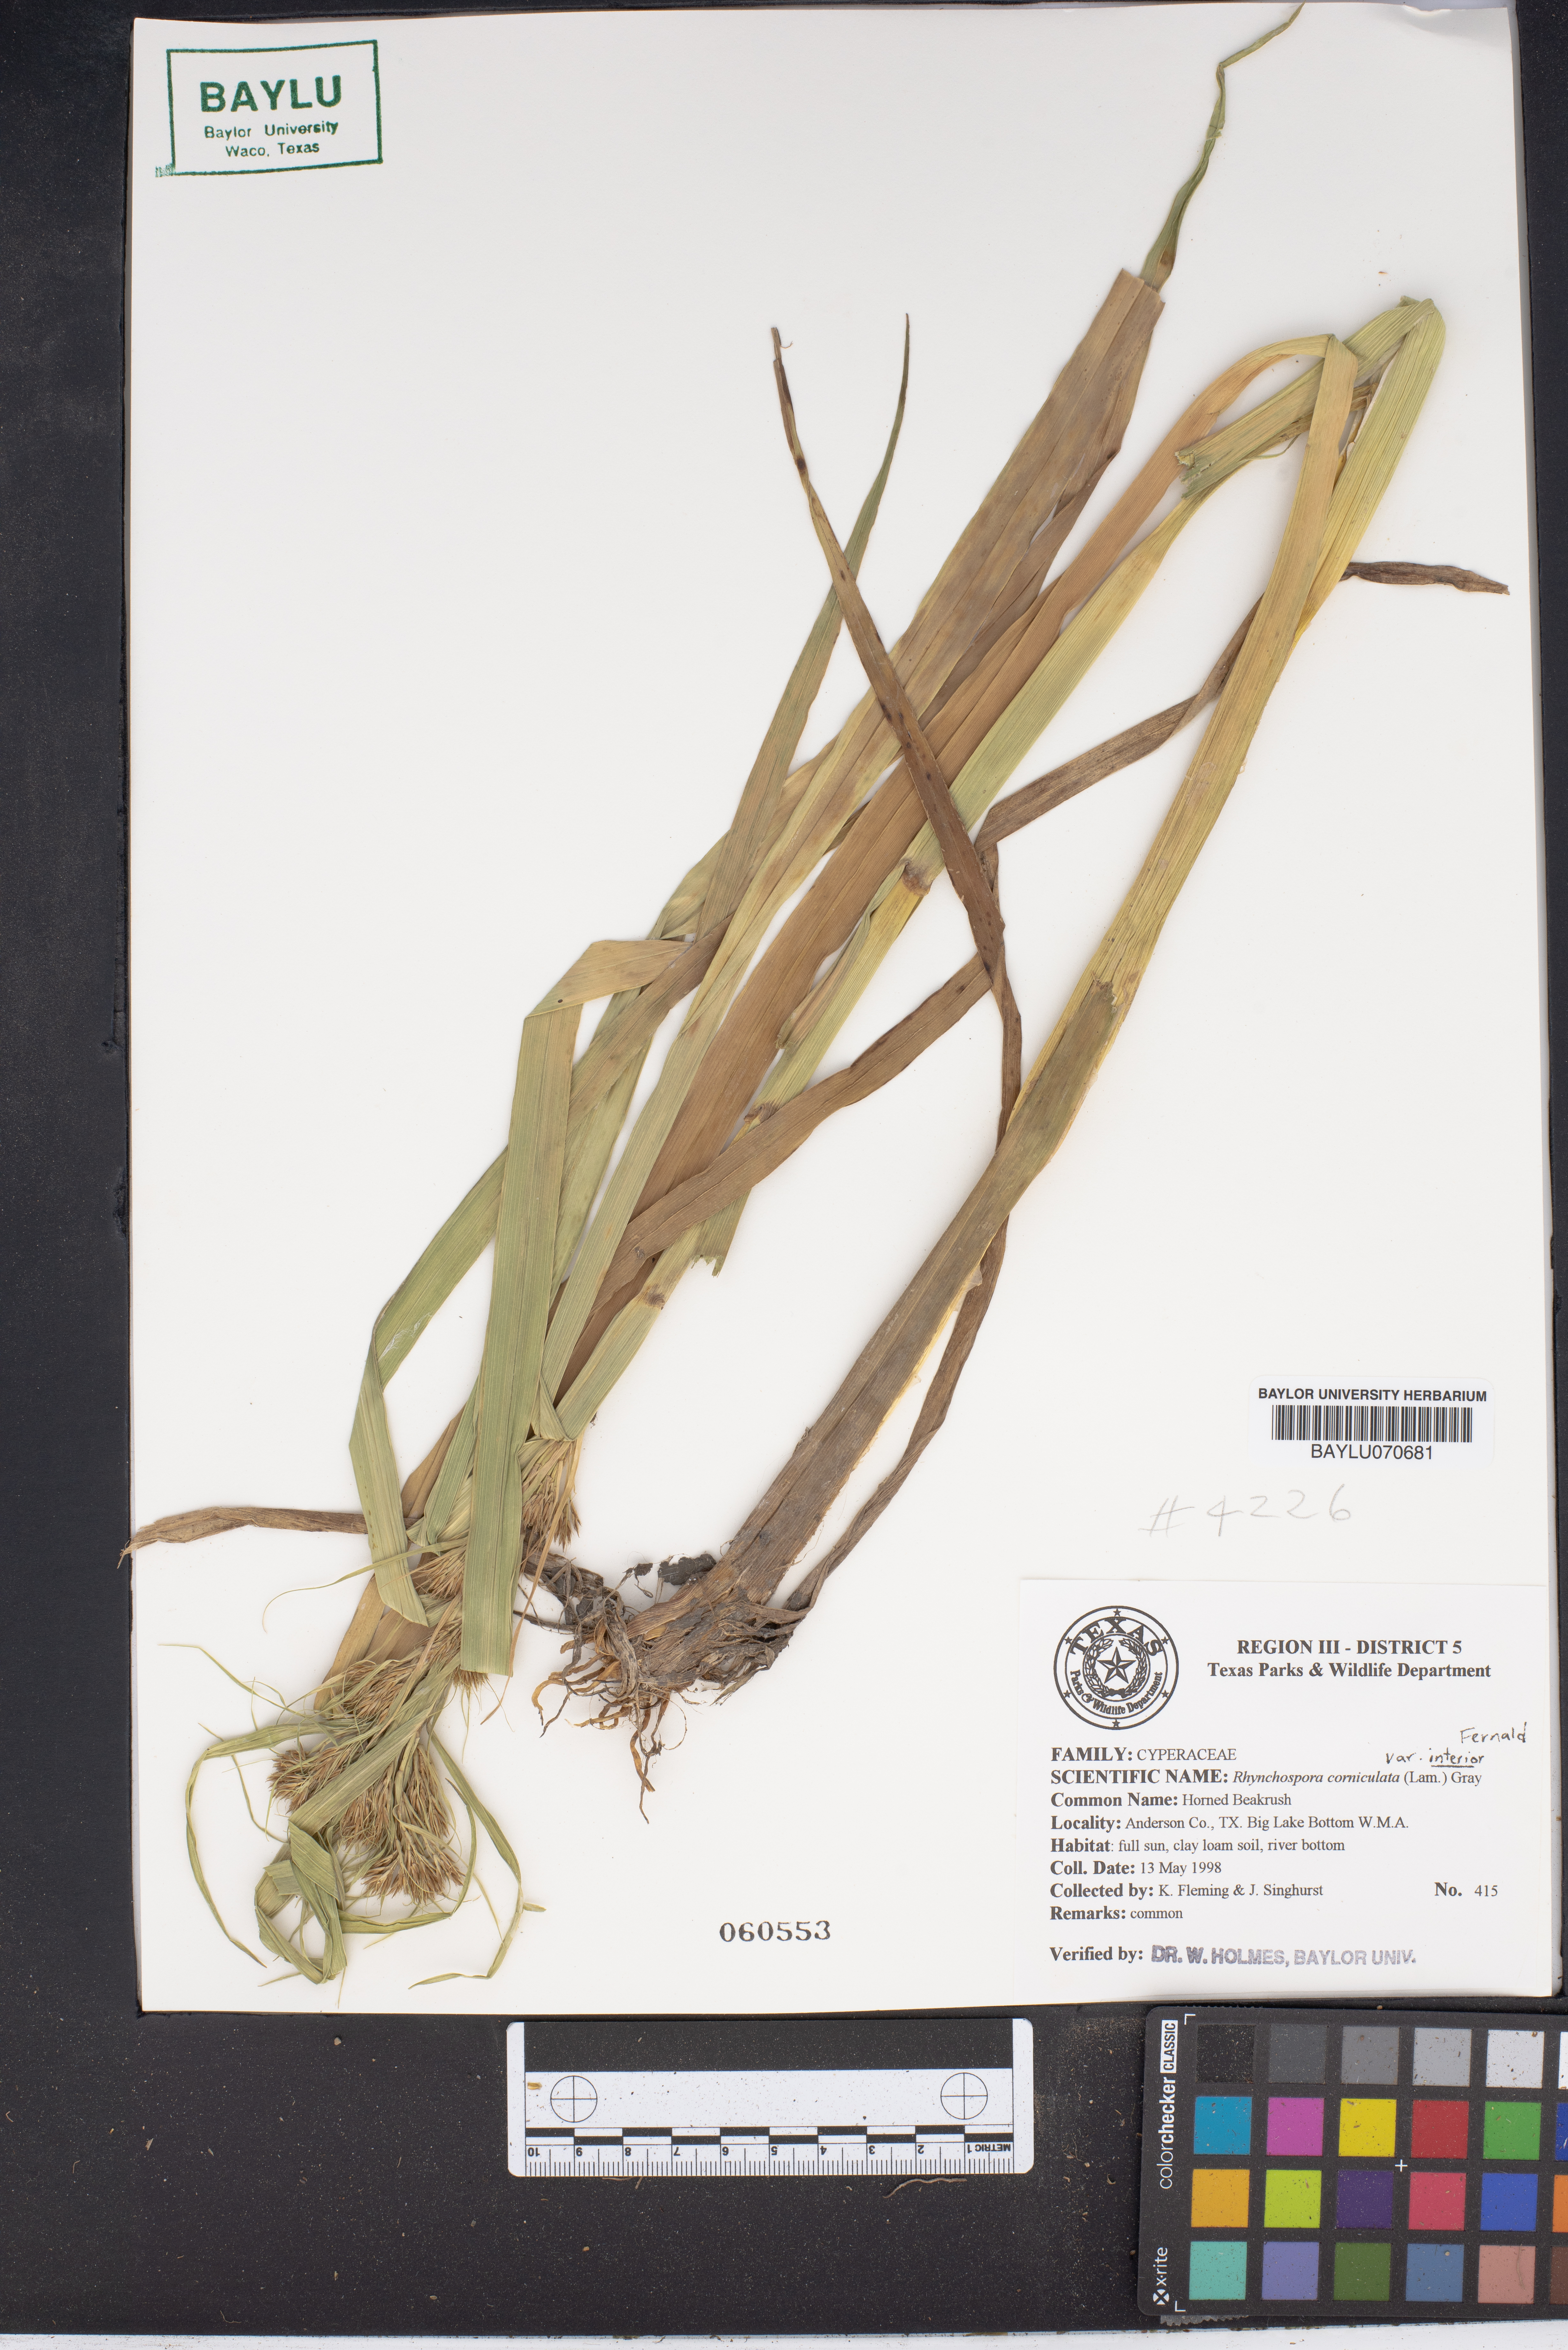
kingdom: Plantae
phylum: Tracheophyta
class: Liliopsida
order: Poales
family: Cyperaceae
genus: Rhynchospora
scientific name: Rhynchospora corniculata
